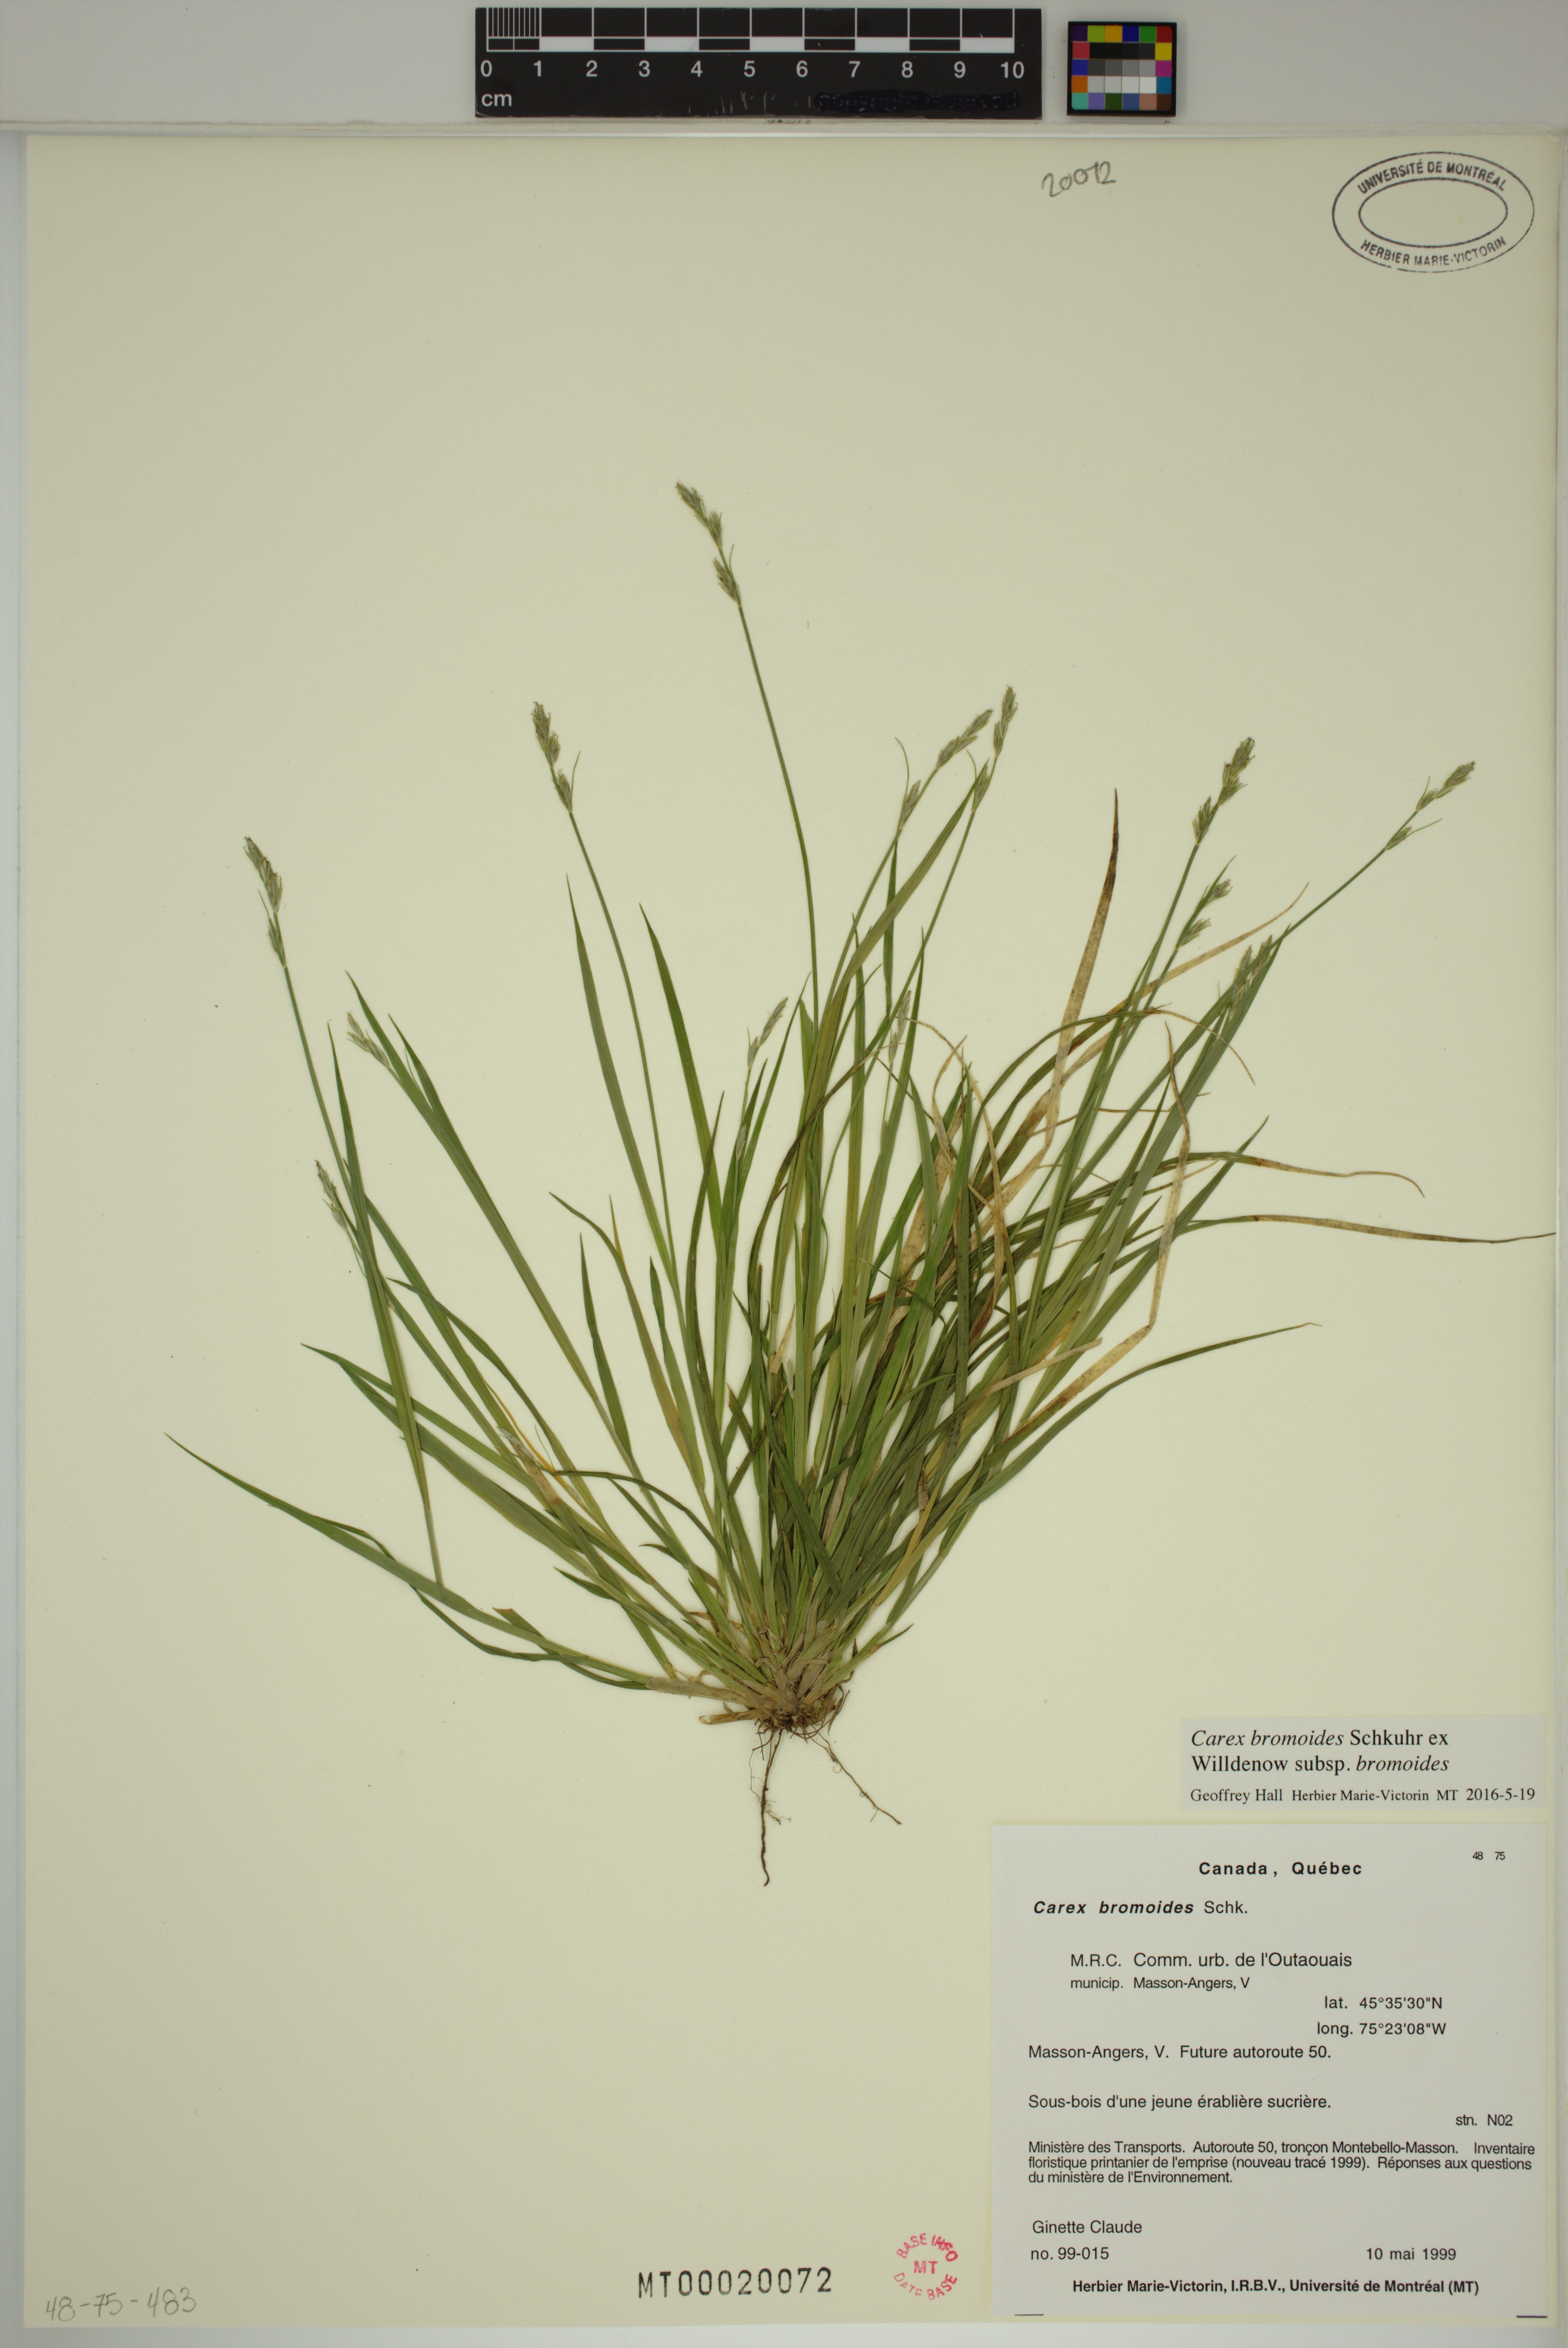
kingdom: Plantae
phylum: Tracheophyta
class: Liliopsida
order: Poales
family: Cyperaceae
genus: Carex
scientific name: Carex bromoides
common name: Brome hummock sedge
